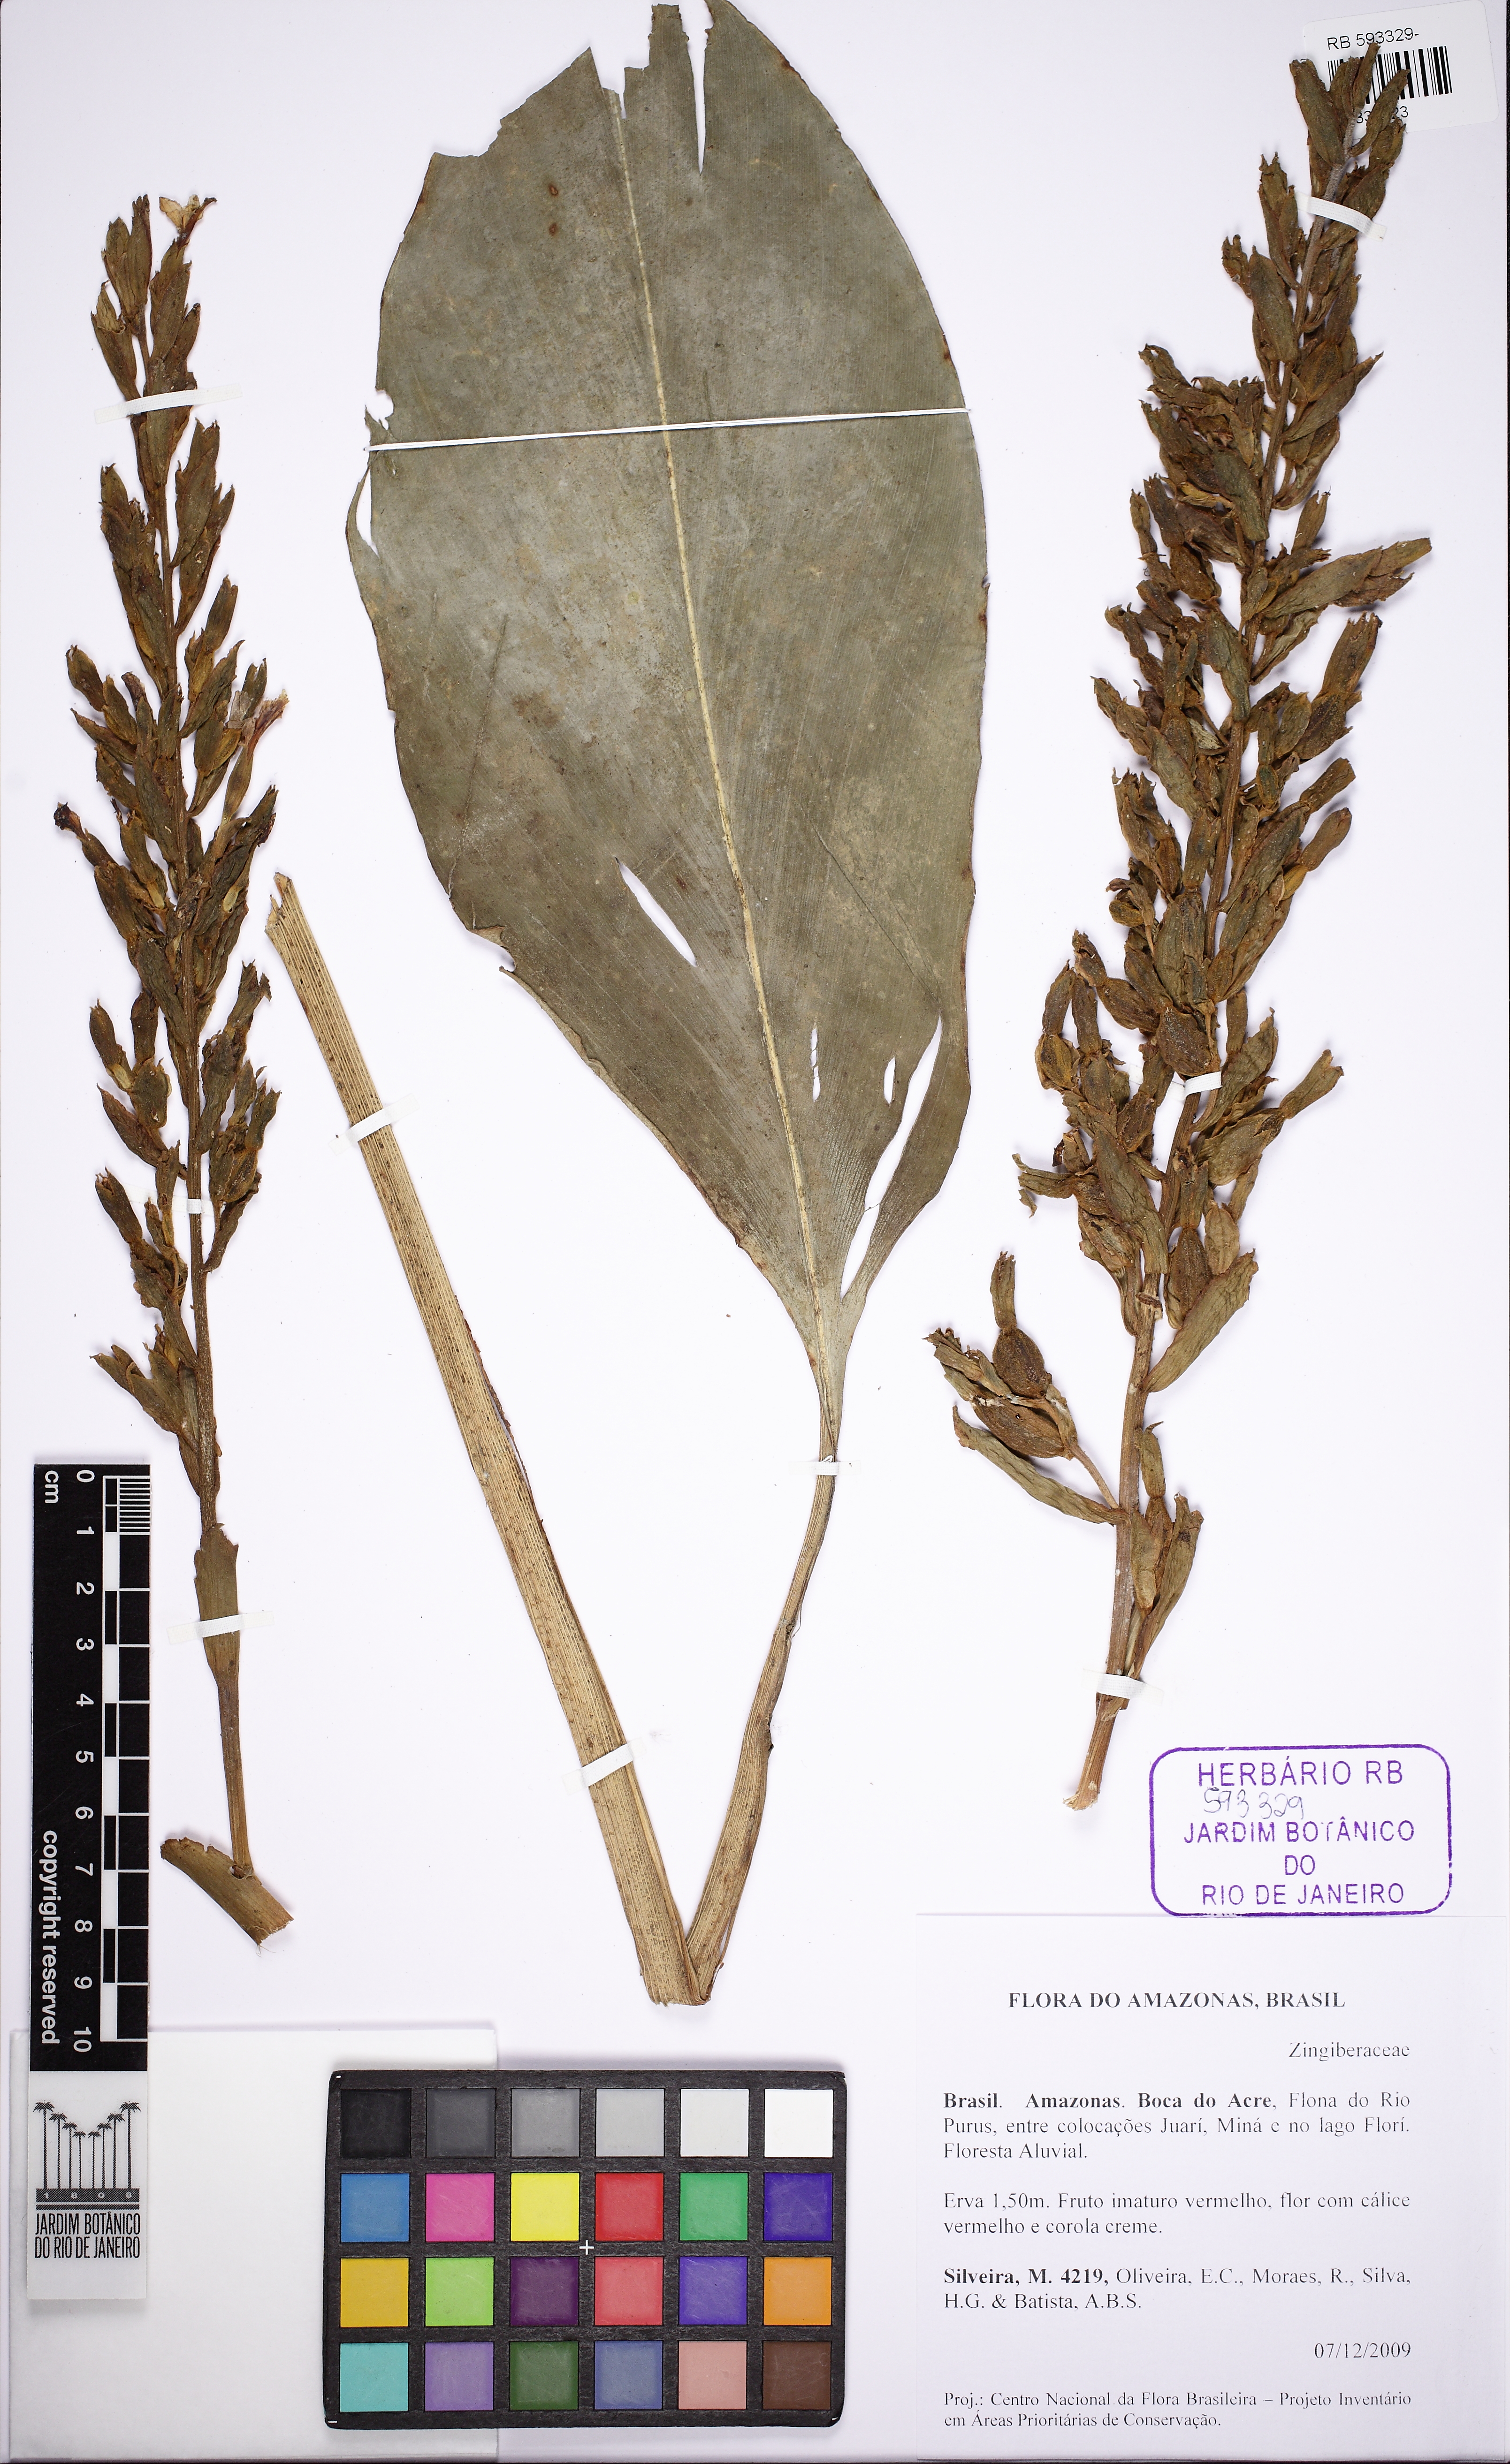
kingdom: Plantae
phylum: Tracheophyta
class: Liliopsida
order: Zingiberales
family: Zingiberaceae
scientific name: Zingiberaceae
